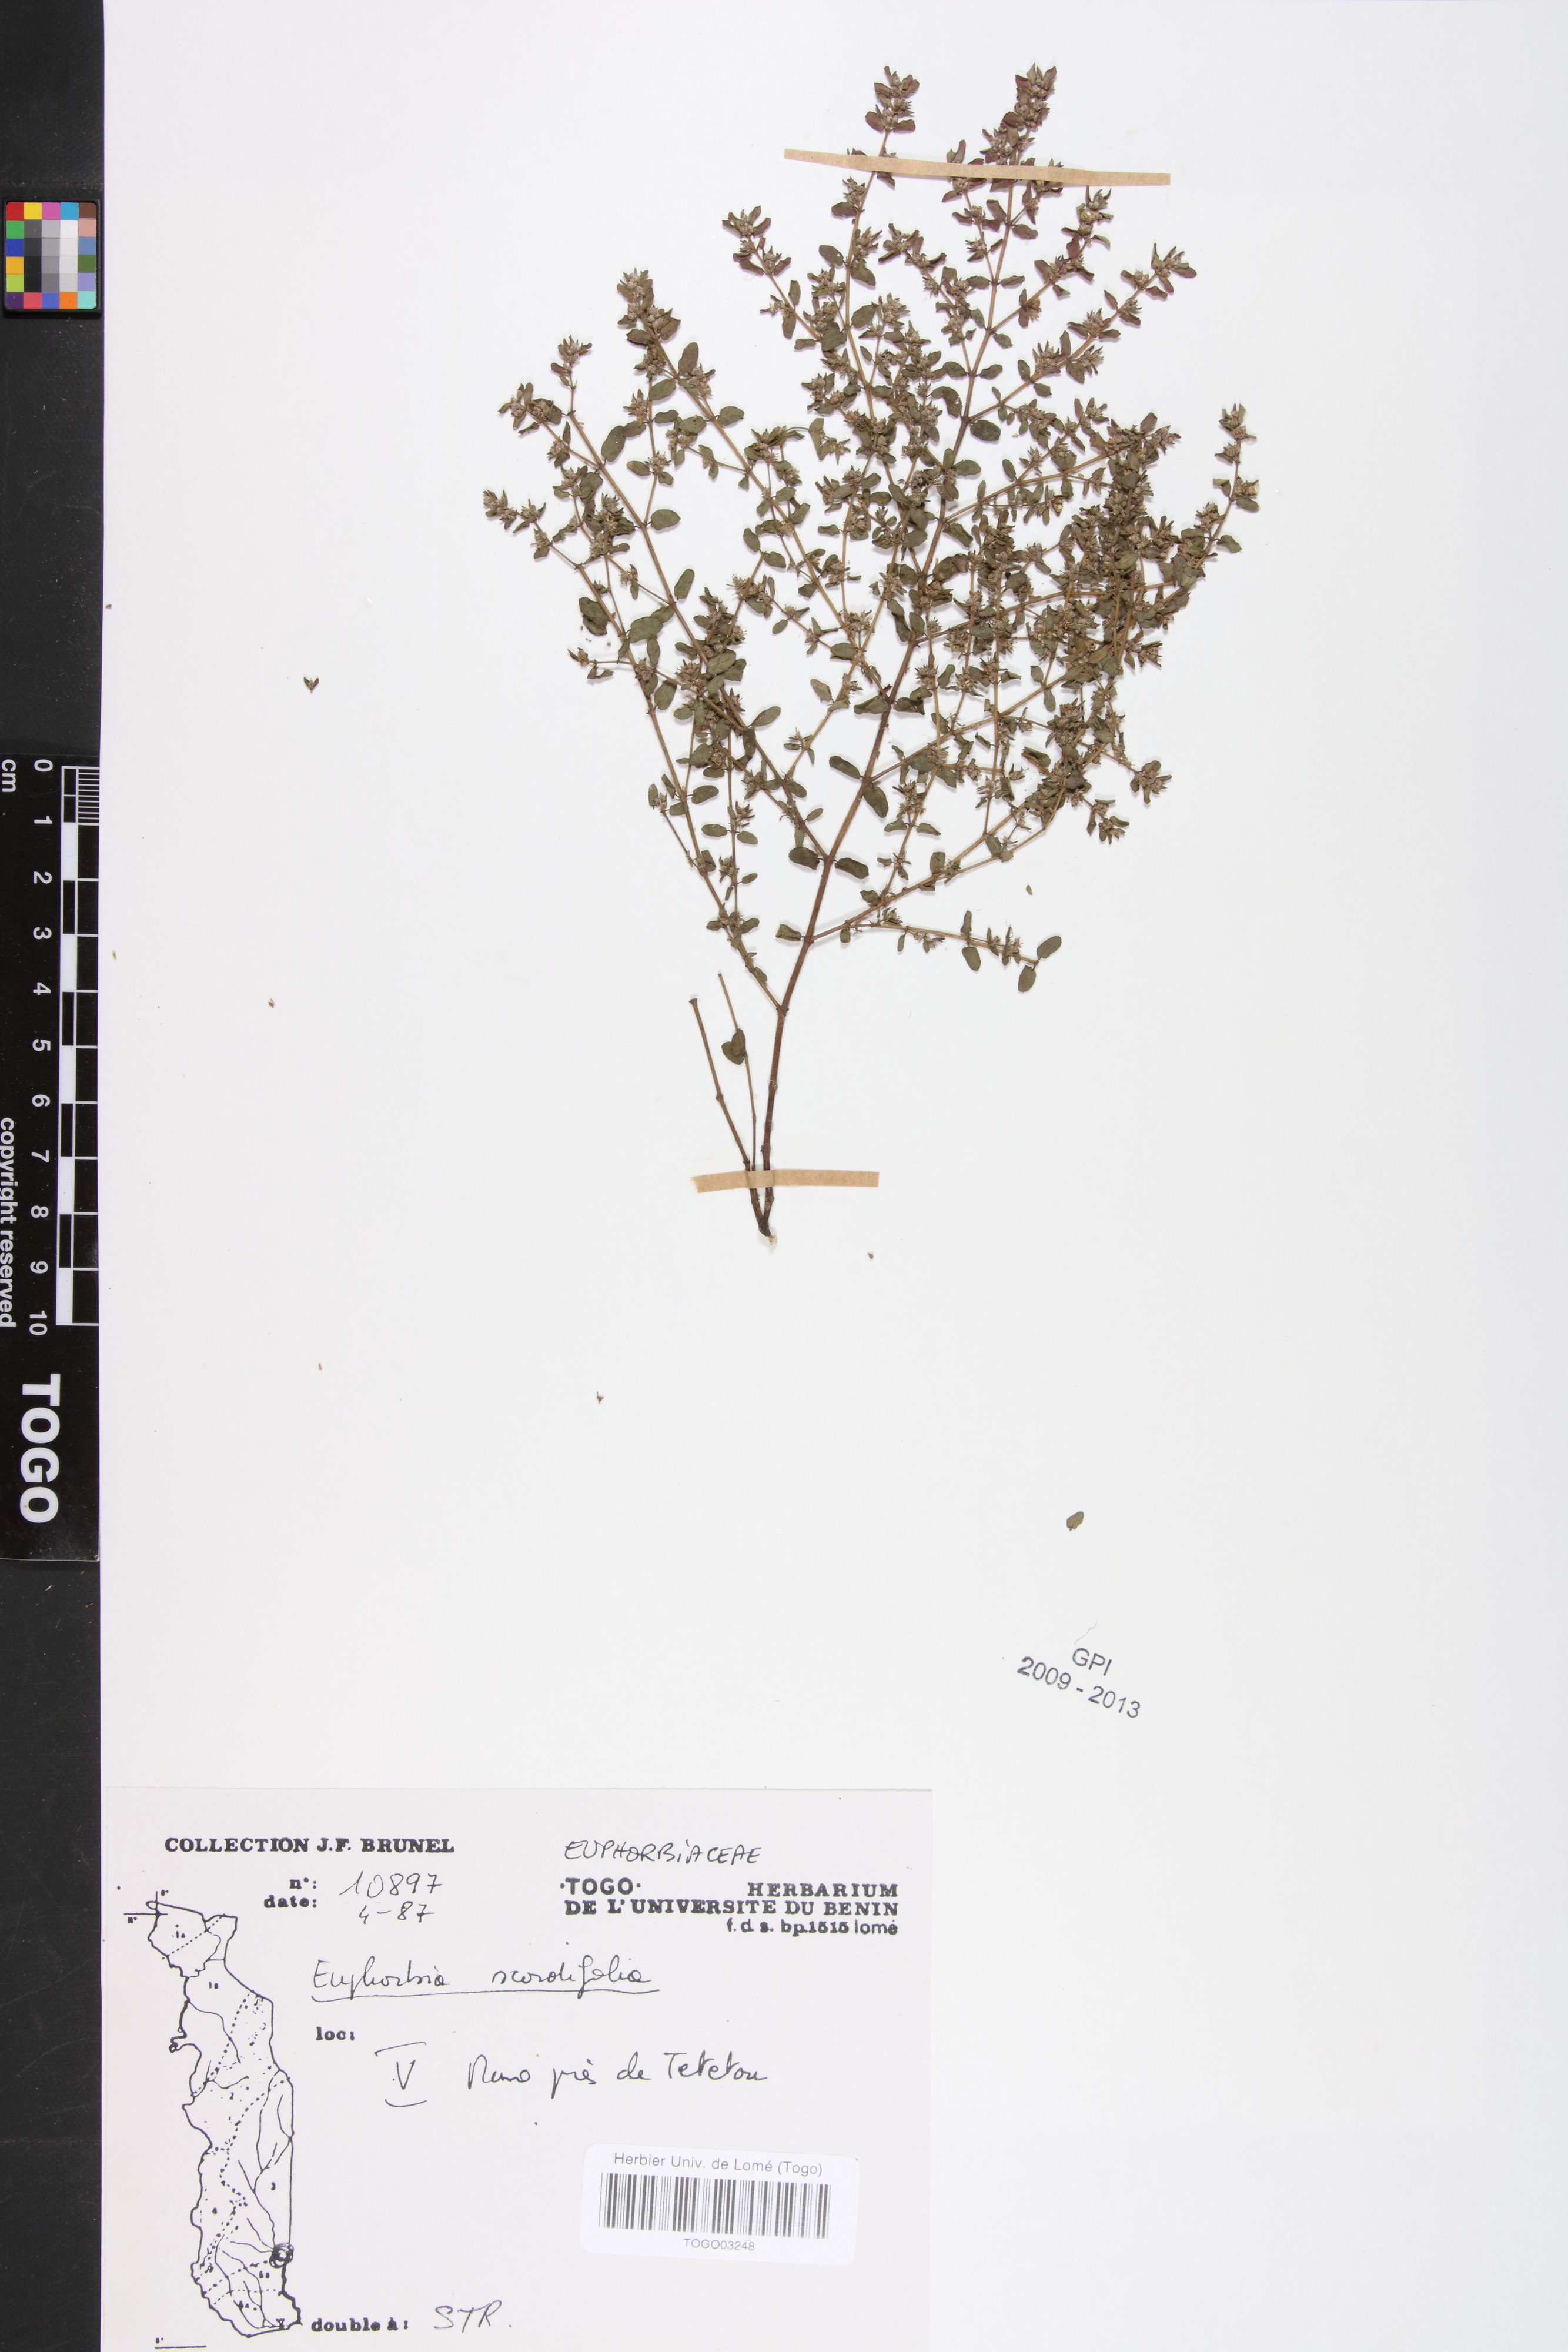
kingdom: Plantae
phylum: Tracheophyta
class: Magnoliopsida
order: Malpighiales
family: Euphorbiaceae
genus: Euphorbia
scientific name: Euphorbia scordiifolia
